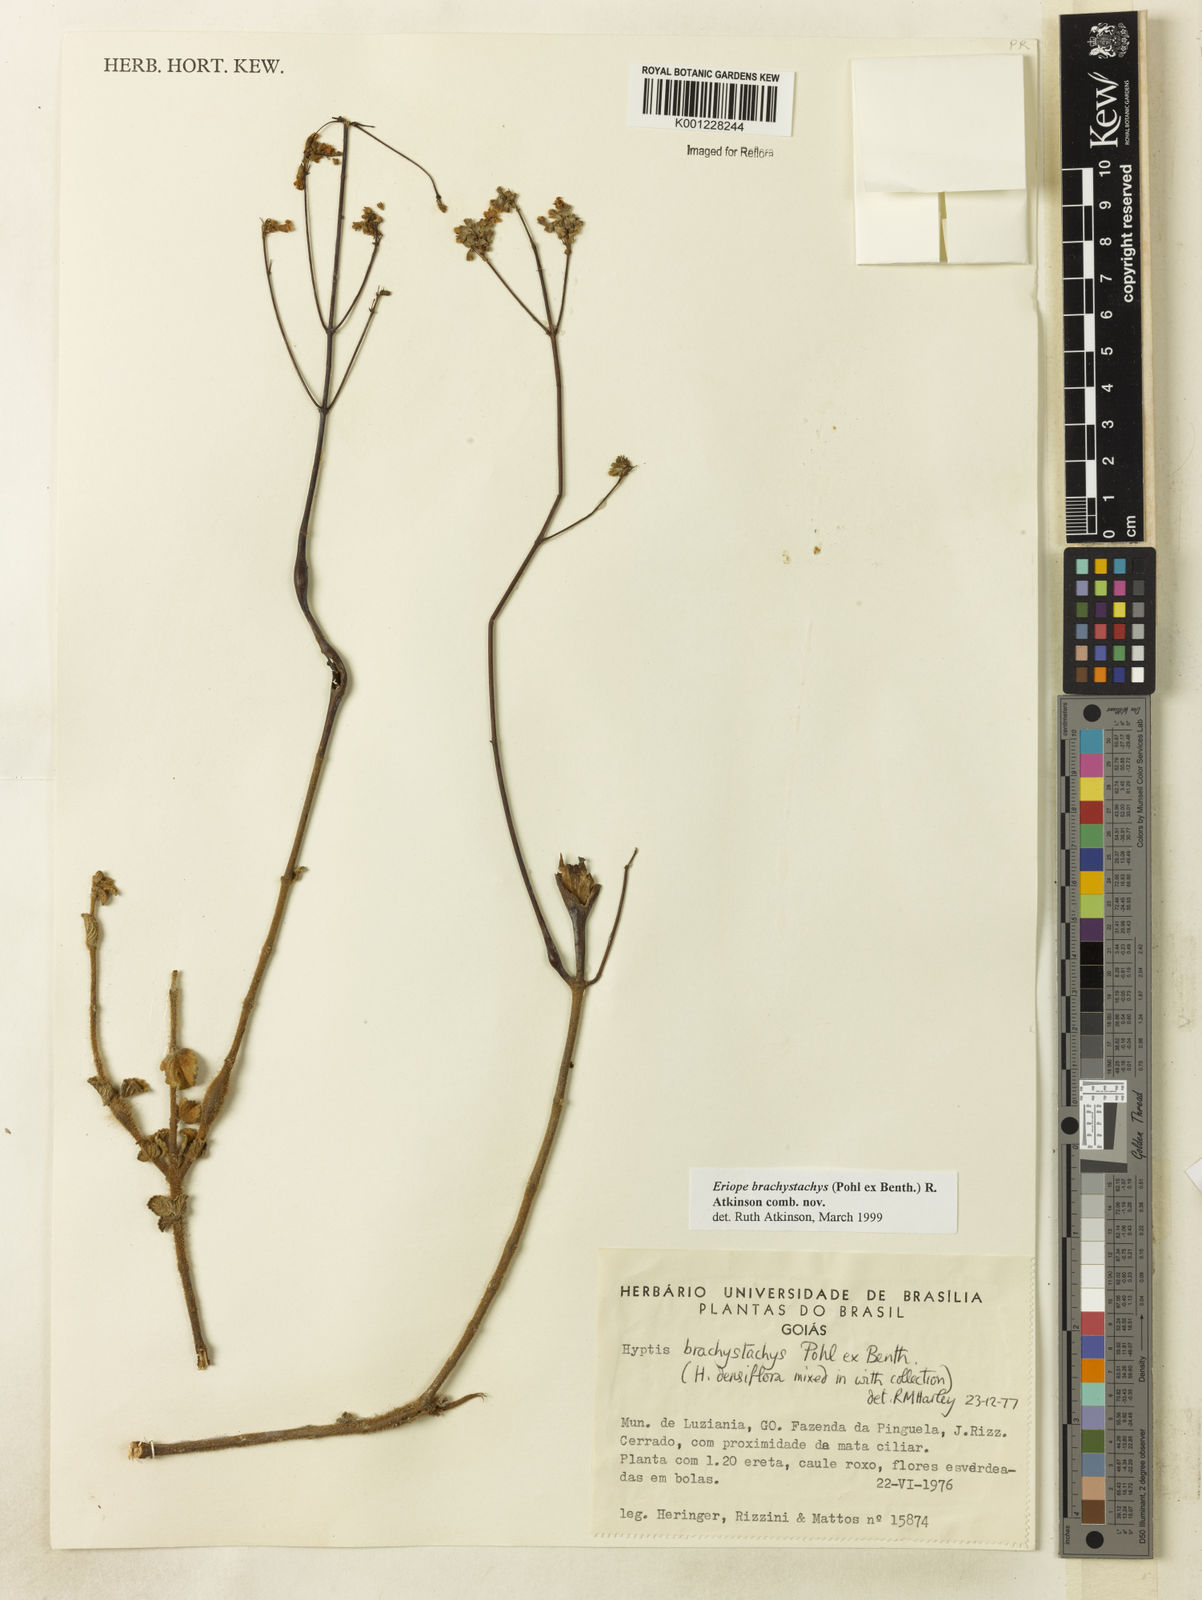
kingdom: Plantae
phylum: Tracheophyta
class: Magnoliopsida
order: Lamiales
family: Lamiaceae
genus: Hypenia
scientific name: Hypenia brachystachys
